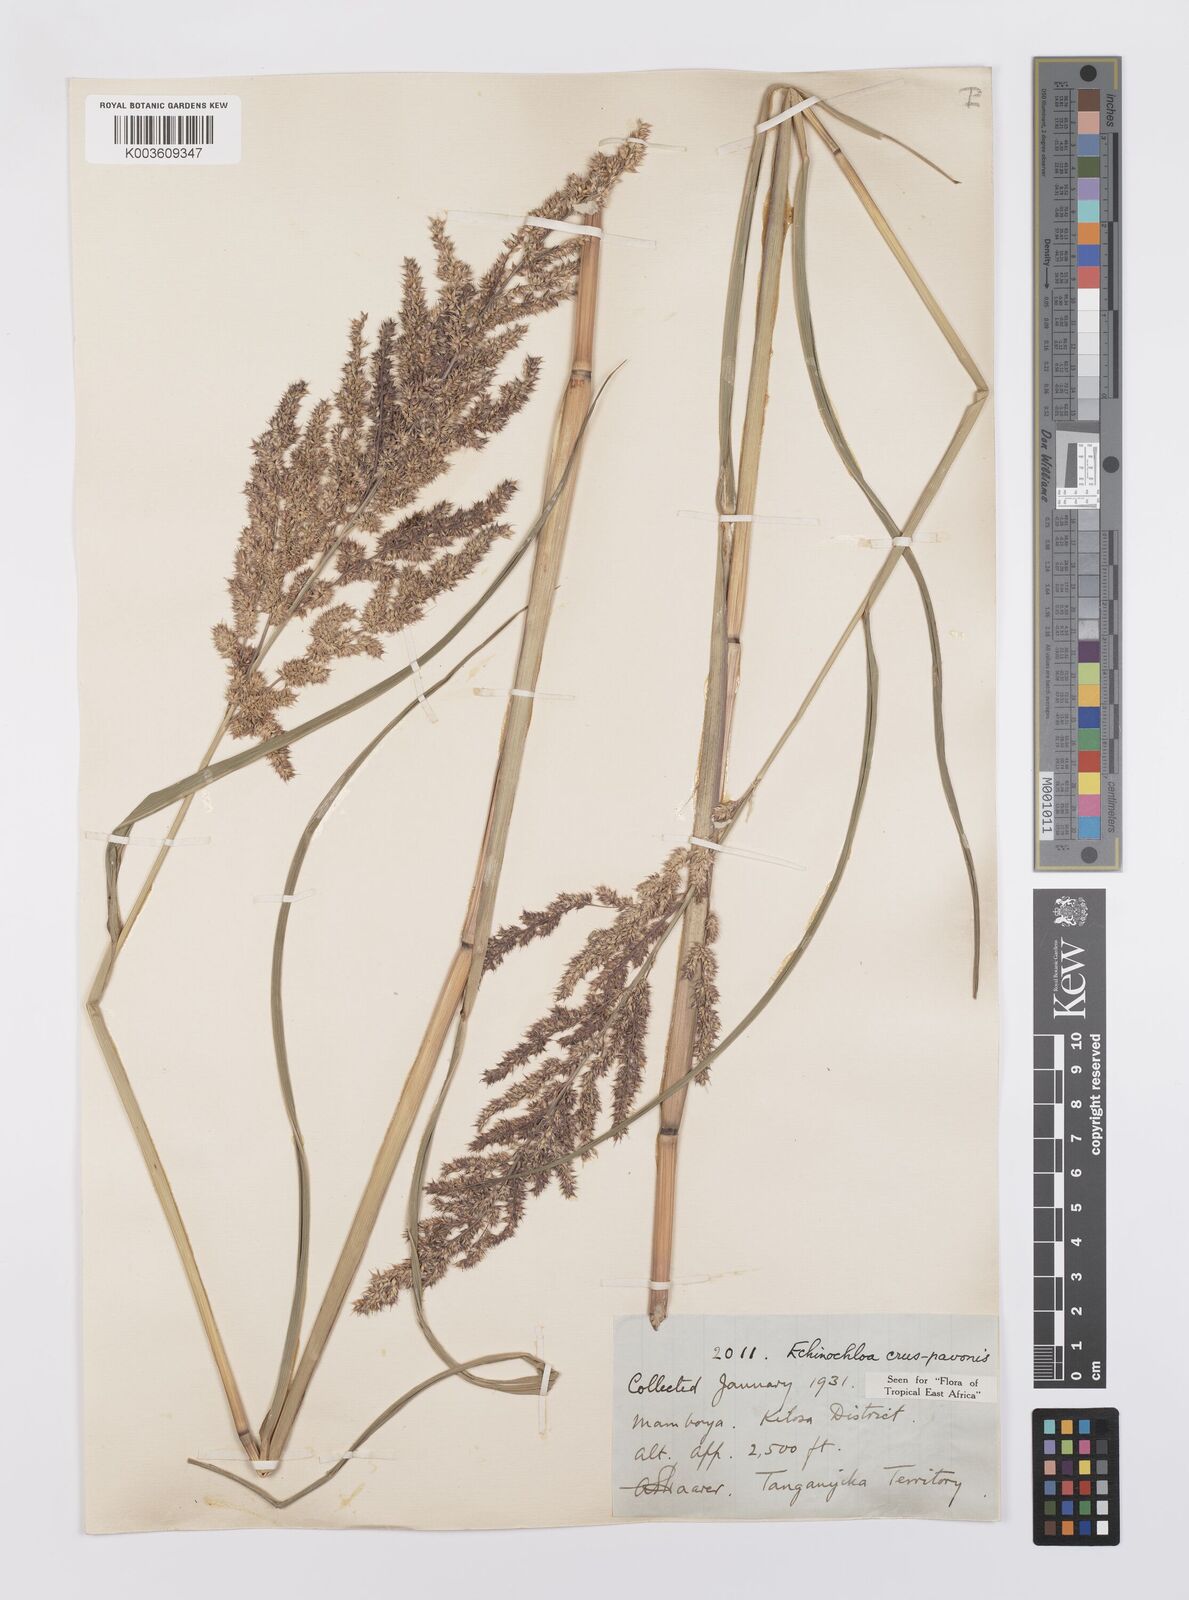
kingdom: Plantae
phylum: Tracheophyta
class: Liliopsida
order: Poales
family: Poaceae
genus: Echinochloa
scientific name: Echinochloa crus-pavonis
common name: Gulf cockspur grass
